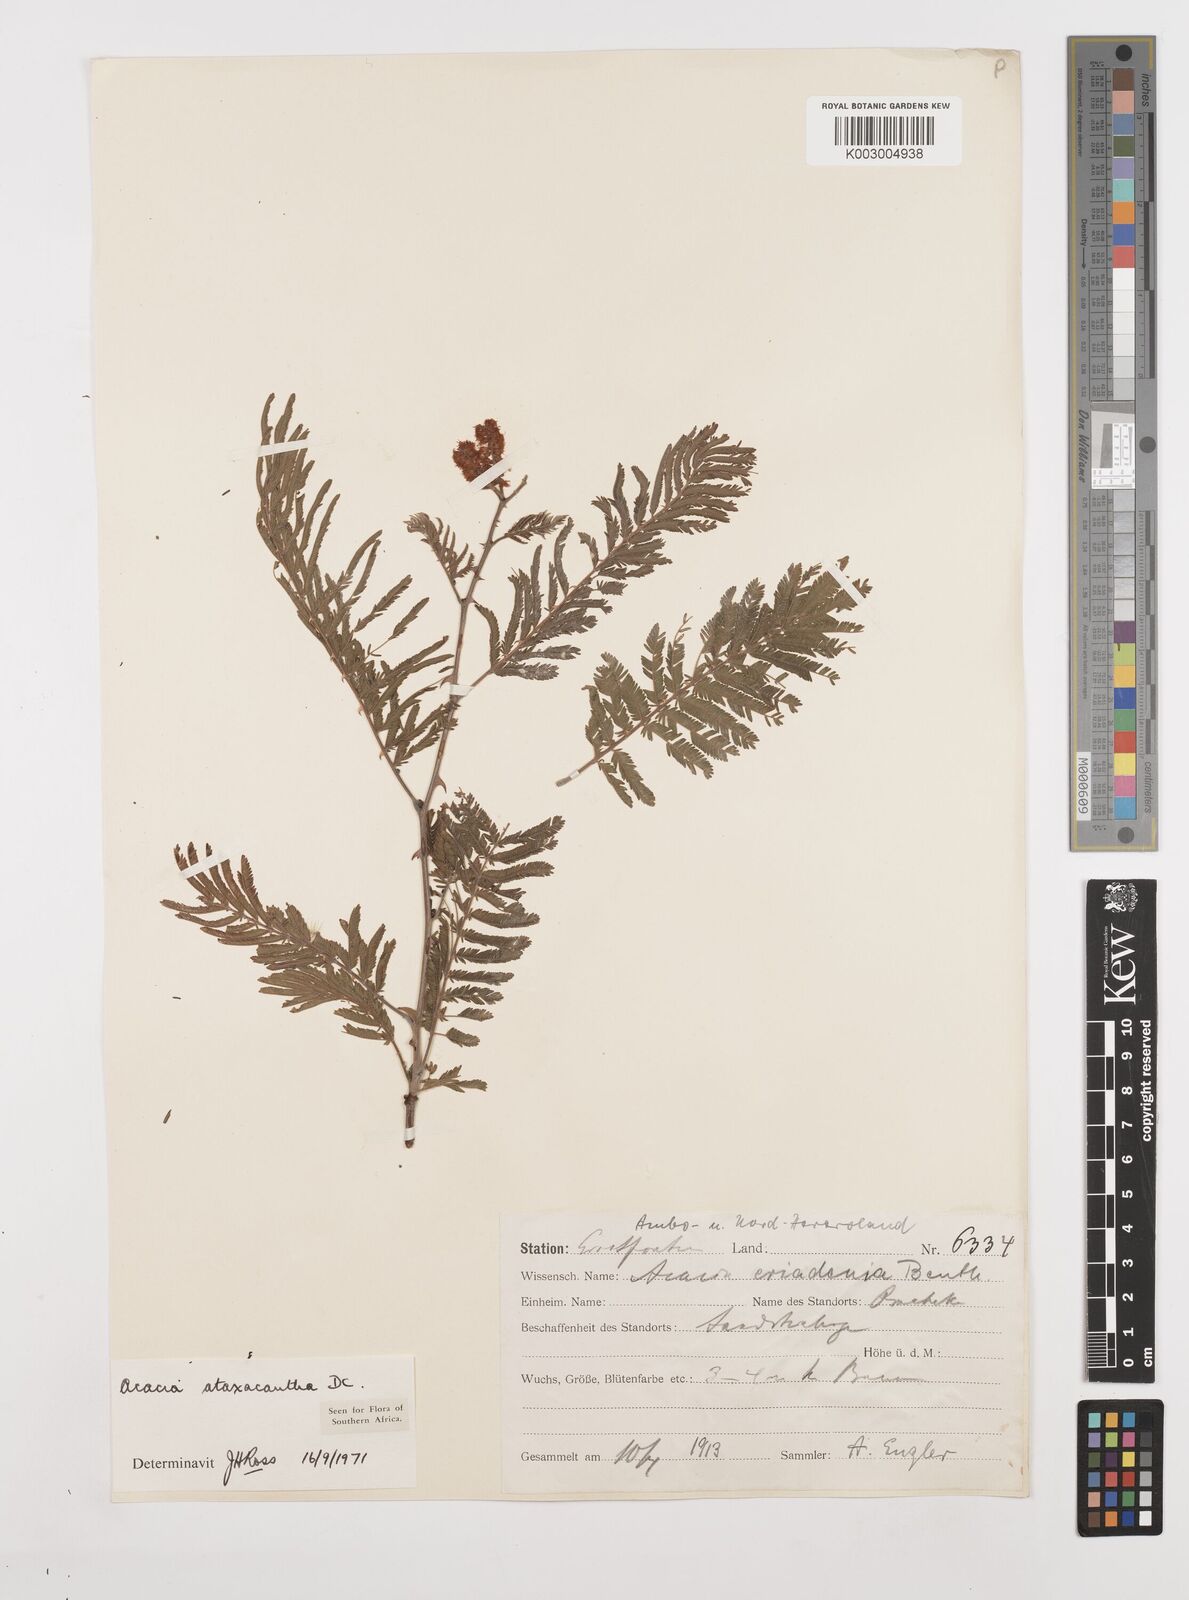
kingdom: Plantae
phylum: Tracheophyta
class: Magnoliopsida
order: Fabales
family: Fabaceae
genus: Senegalia
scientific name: Senegalia ataxacantha
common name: Flame acacia
